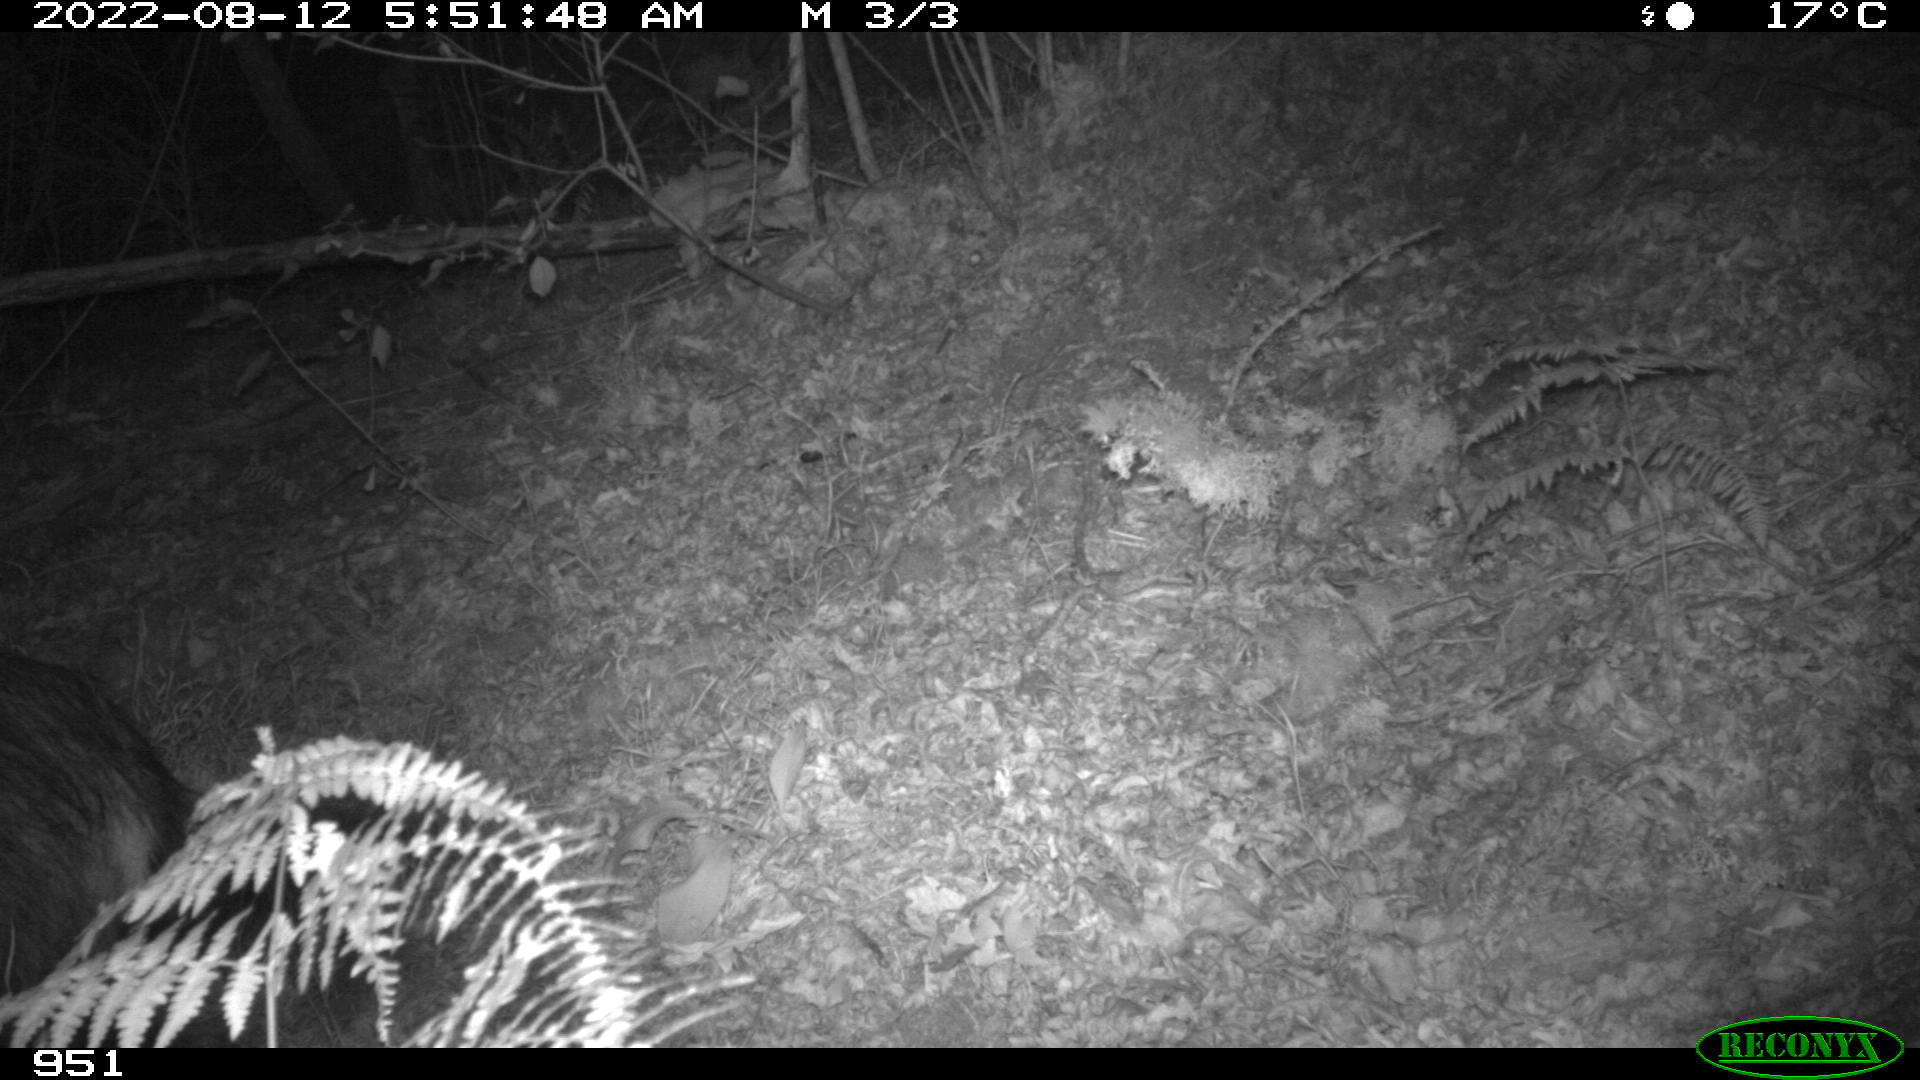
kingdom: Animalia
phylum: Chordata
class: Mammalia
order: Artiodactyla
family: Suidae
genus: Sus
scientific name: Sus scrofa
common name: Wild boar
